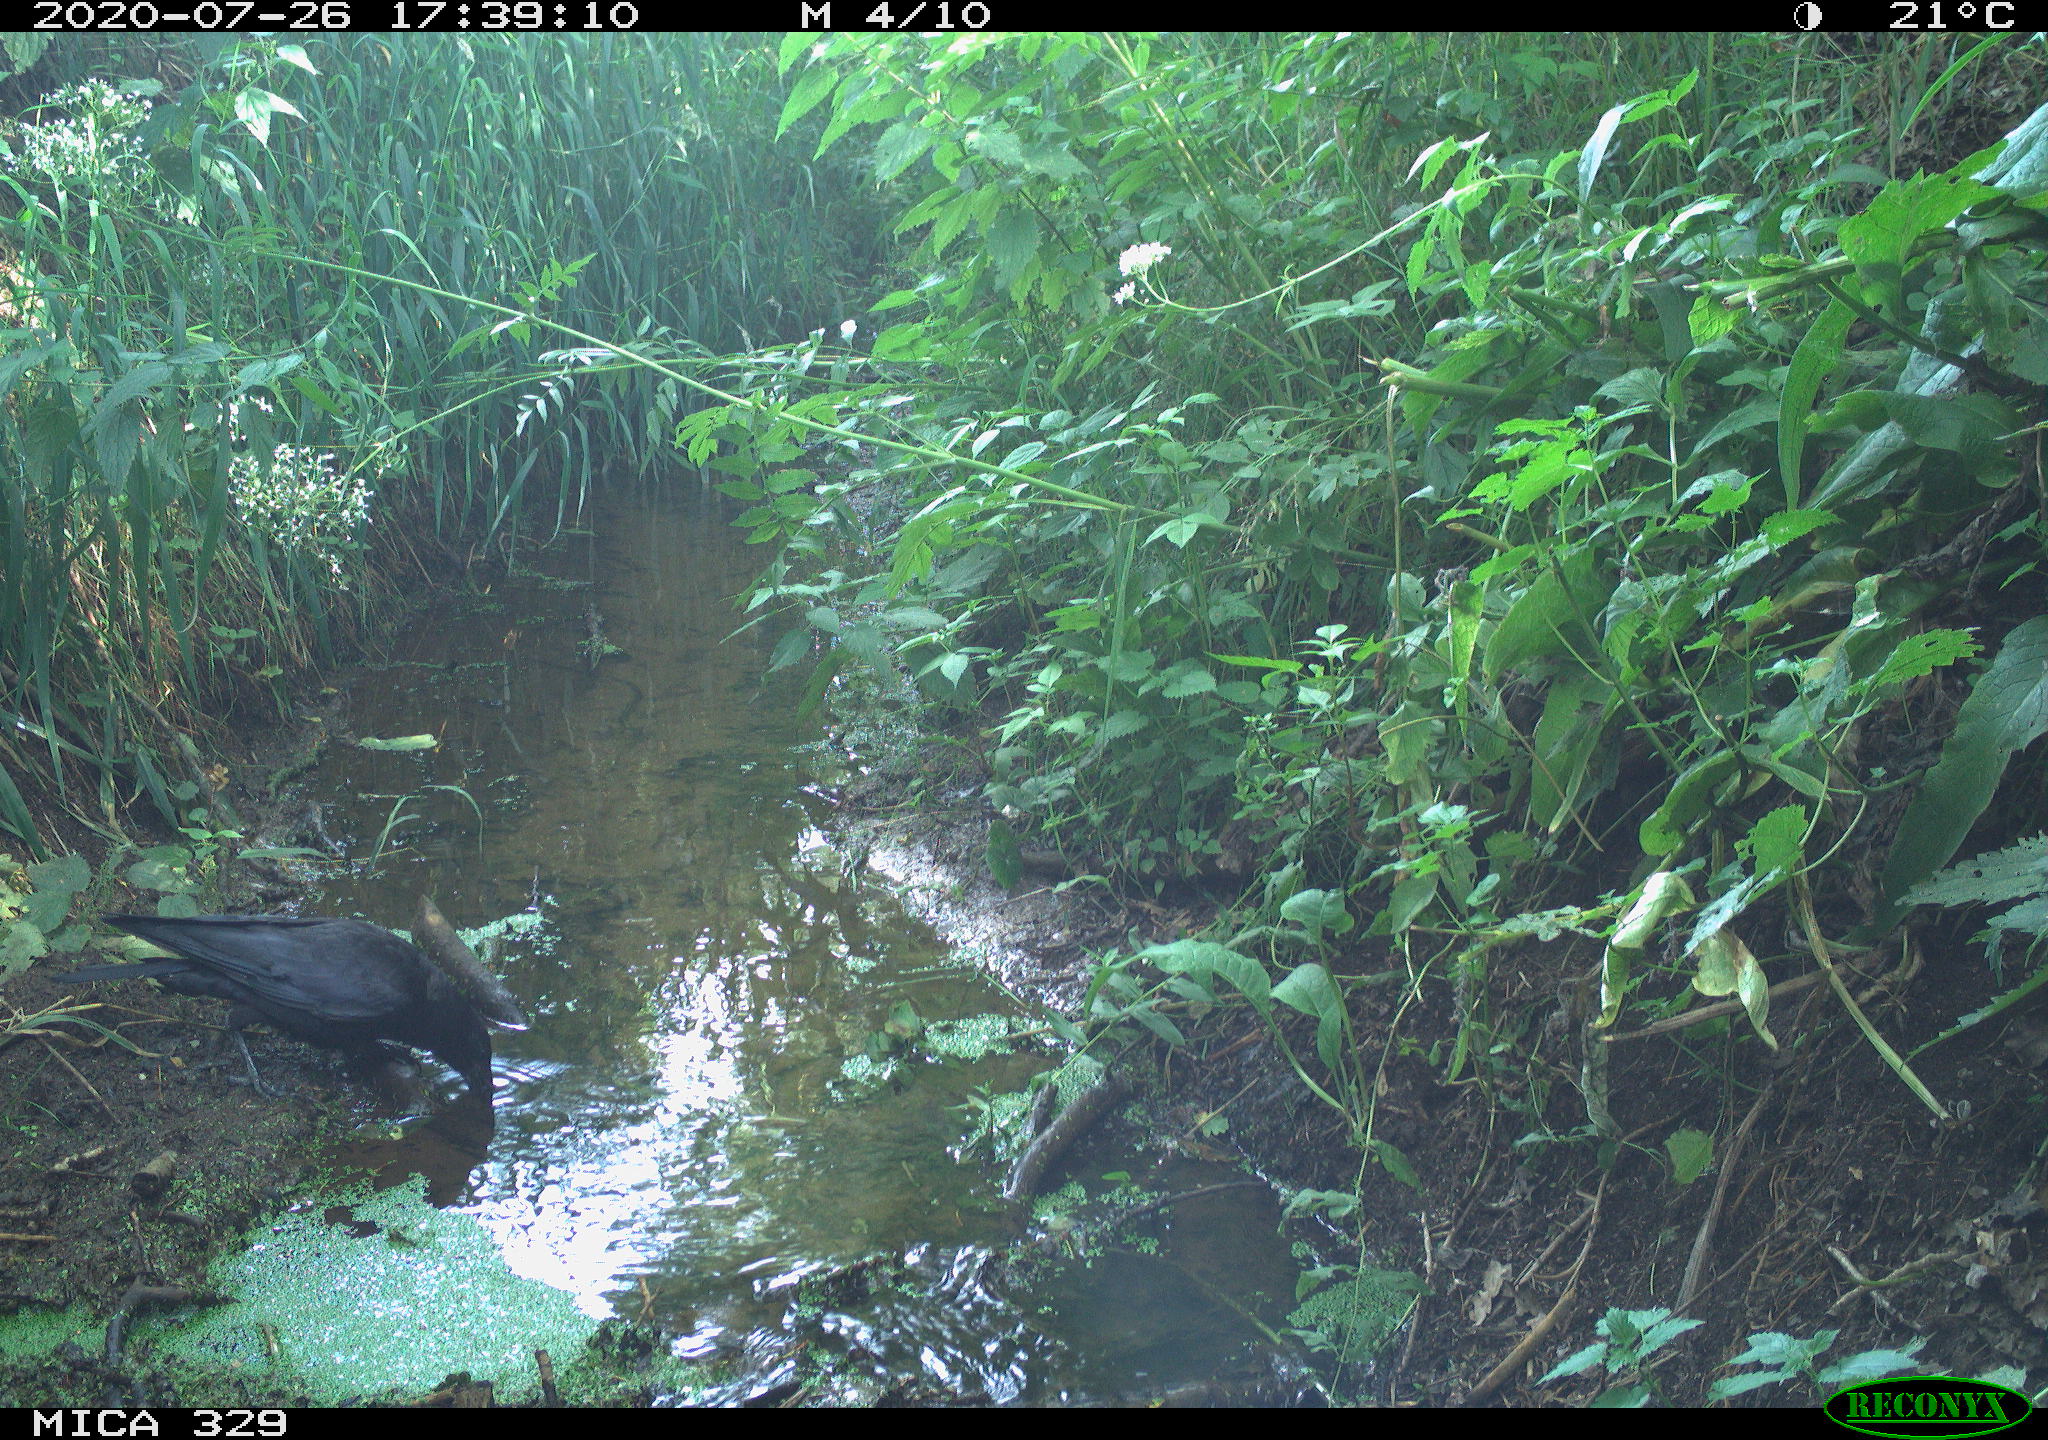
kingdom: Animalia
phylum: Chordata
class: Aves
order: Passeriformes
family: Corvidae
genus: Corvus
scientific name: Corvus corax
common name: Common raven
